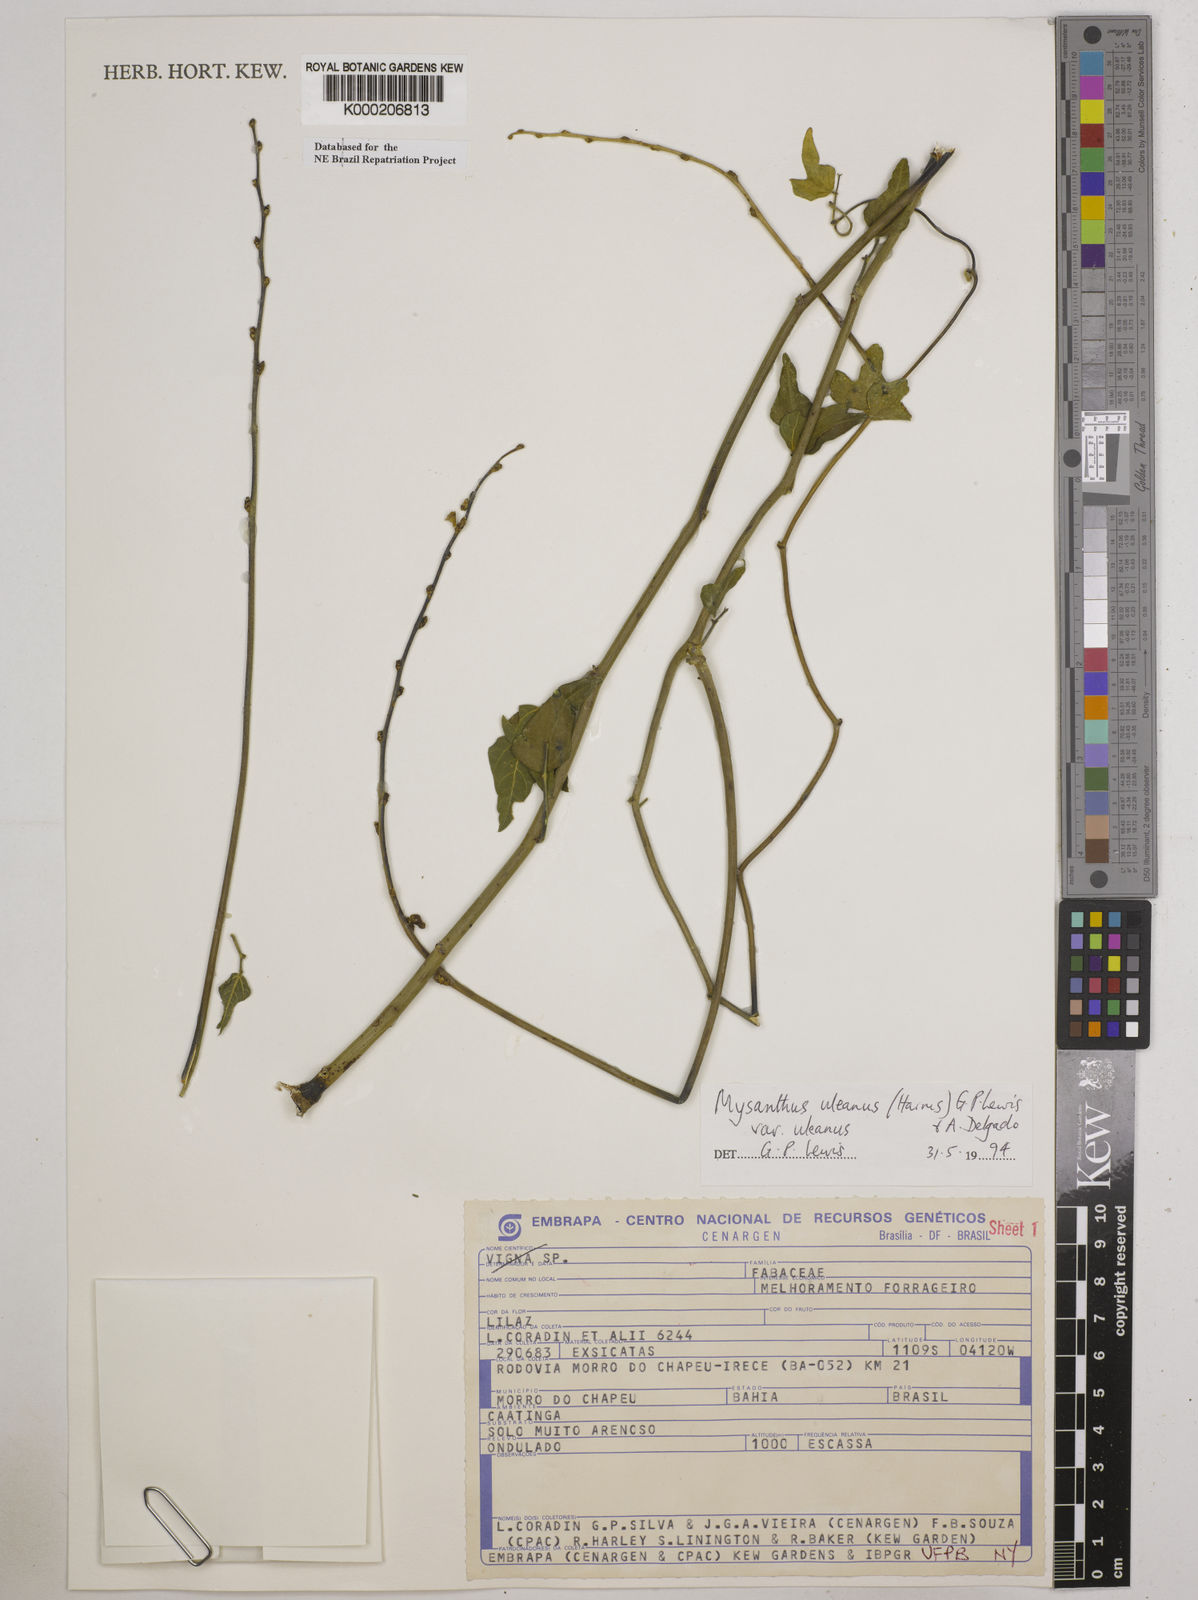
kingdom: Plantae
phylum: Tracheophyta
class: Magnoliopsida
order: Fabales
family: Fabaceae
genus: Mysanthus
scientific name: Mysanthus uleanus
